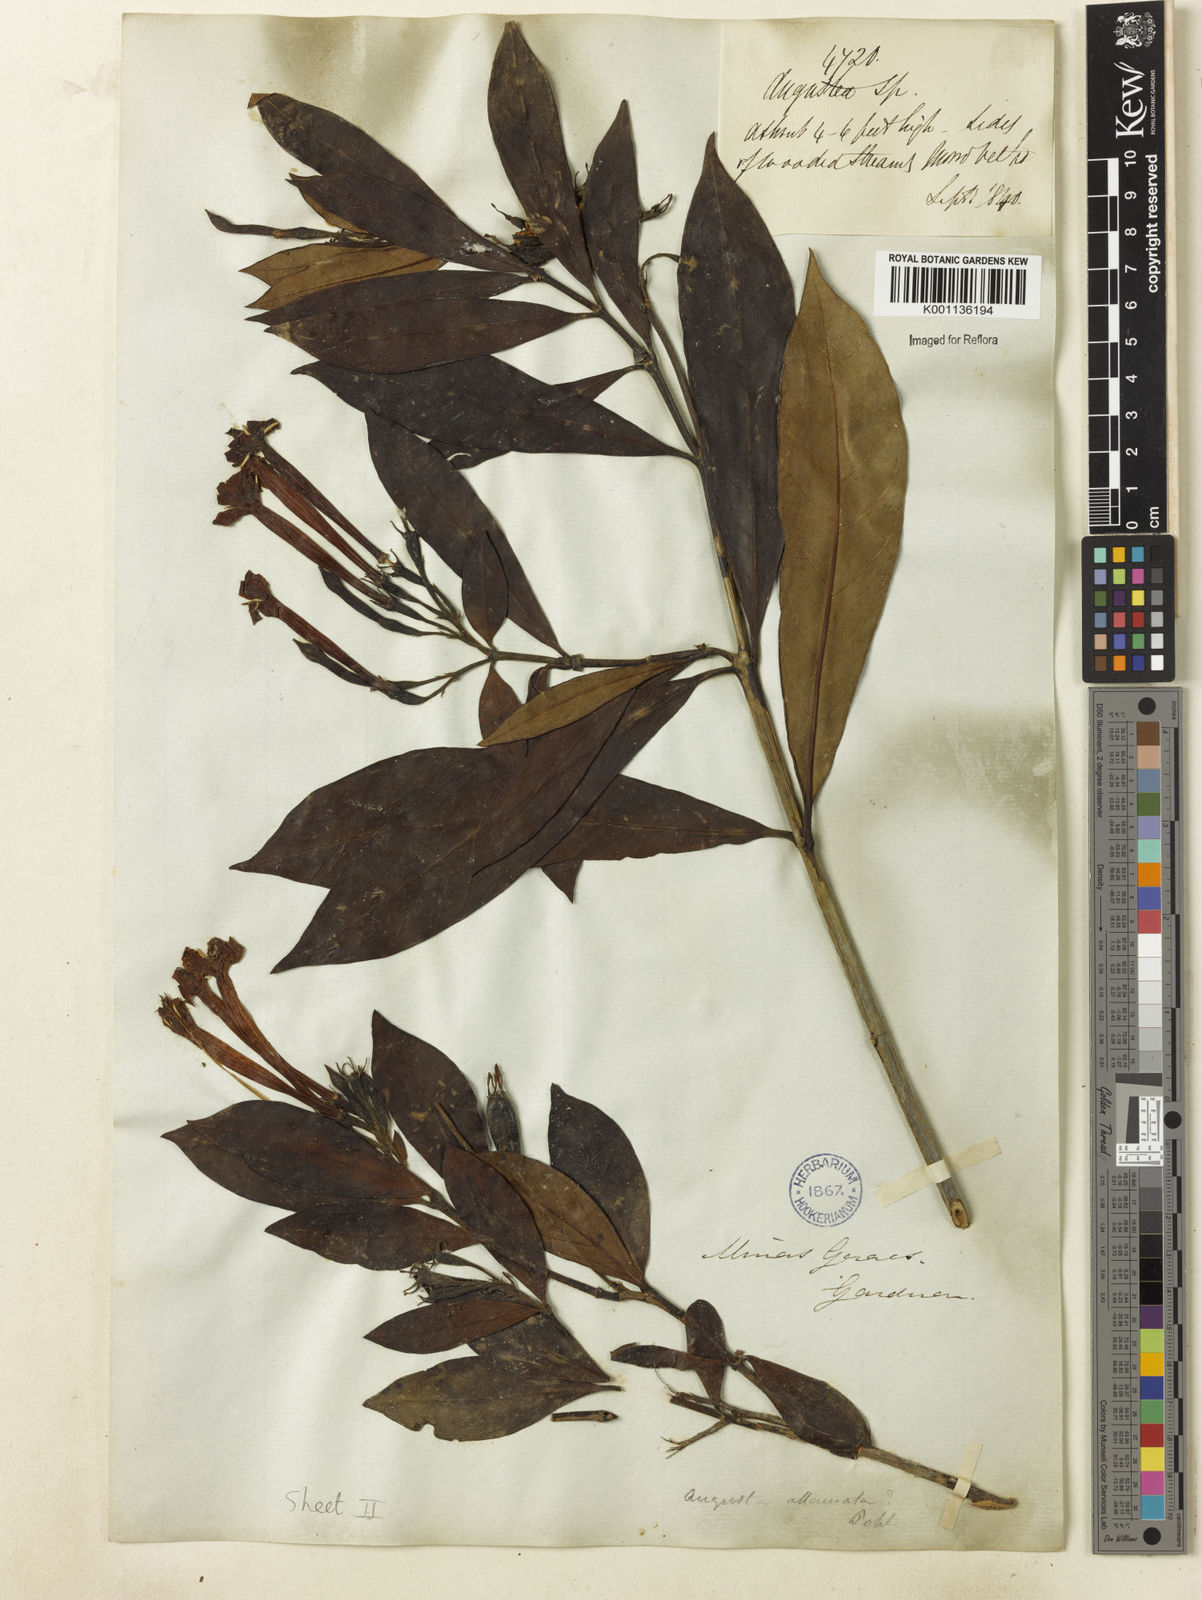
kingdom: Plantae
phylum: Tracheophyta
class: Magnoliopsida
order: Gentianales
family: Rubiaceae
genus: Augusta
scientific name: Augusta longifolia
